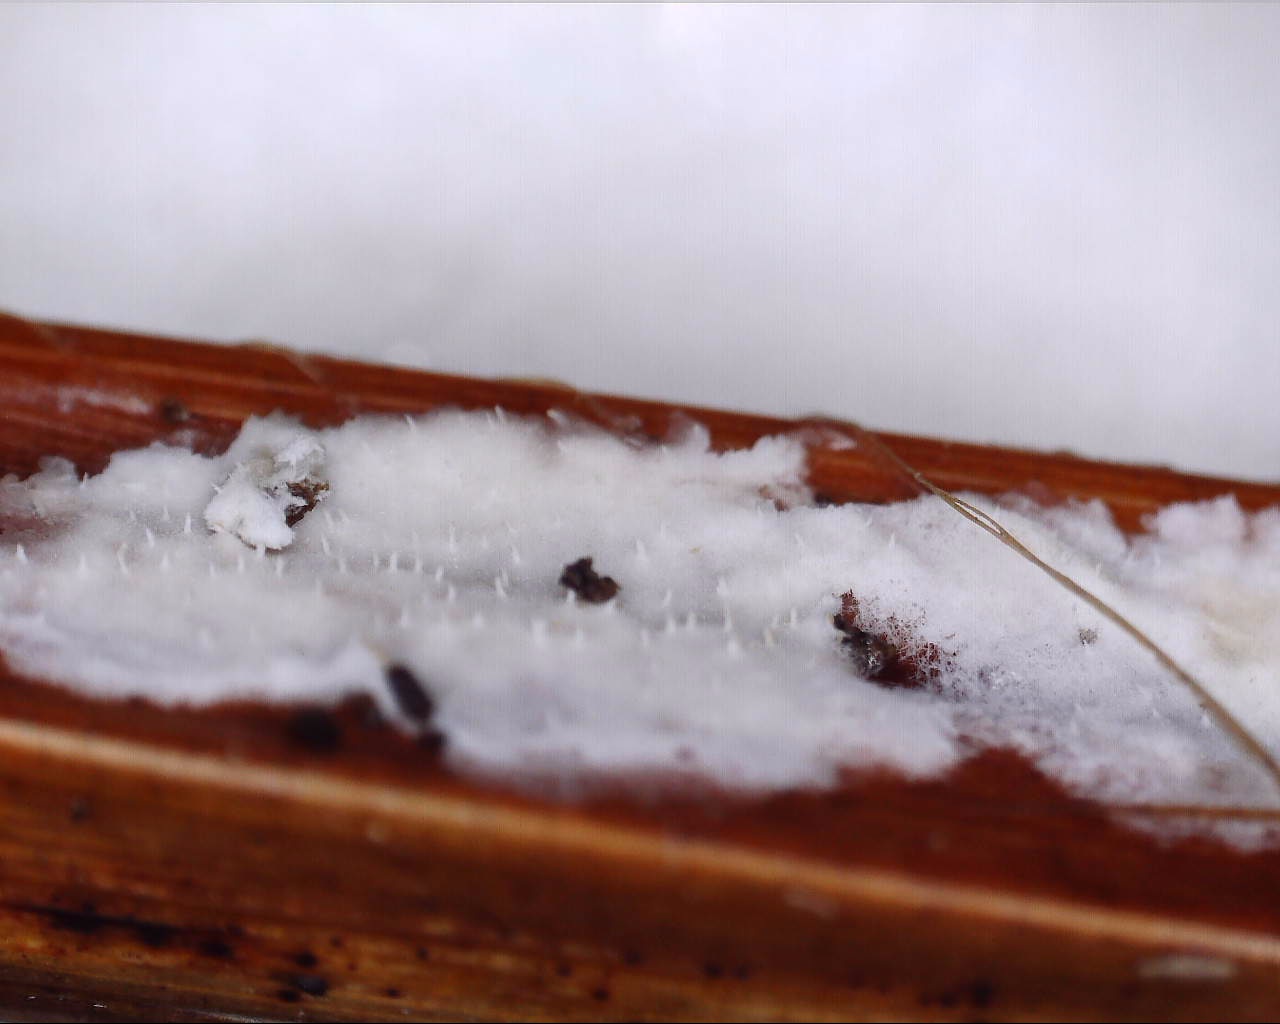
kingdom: Fungi
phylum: Basidiomycota
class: Agaricomycetes
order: Polyporales
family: Polyporaceae
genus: Epithele
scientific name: Epithele typhae
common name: starpig
